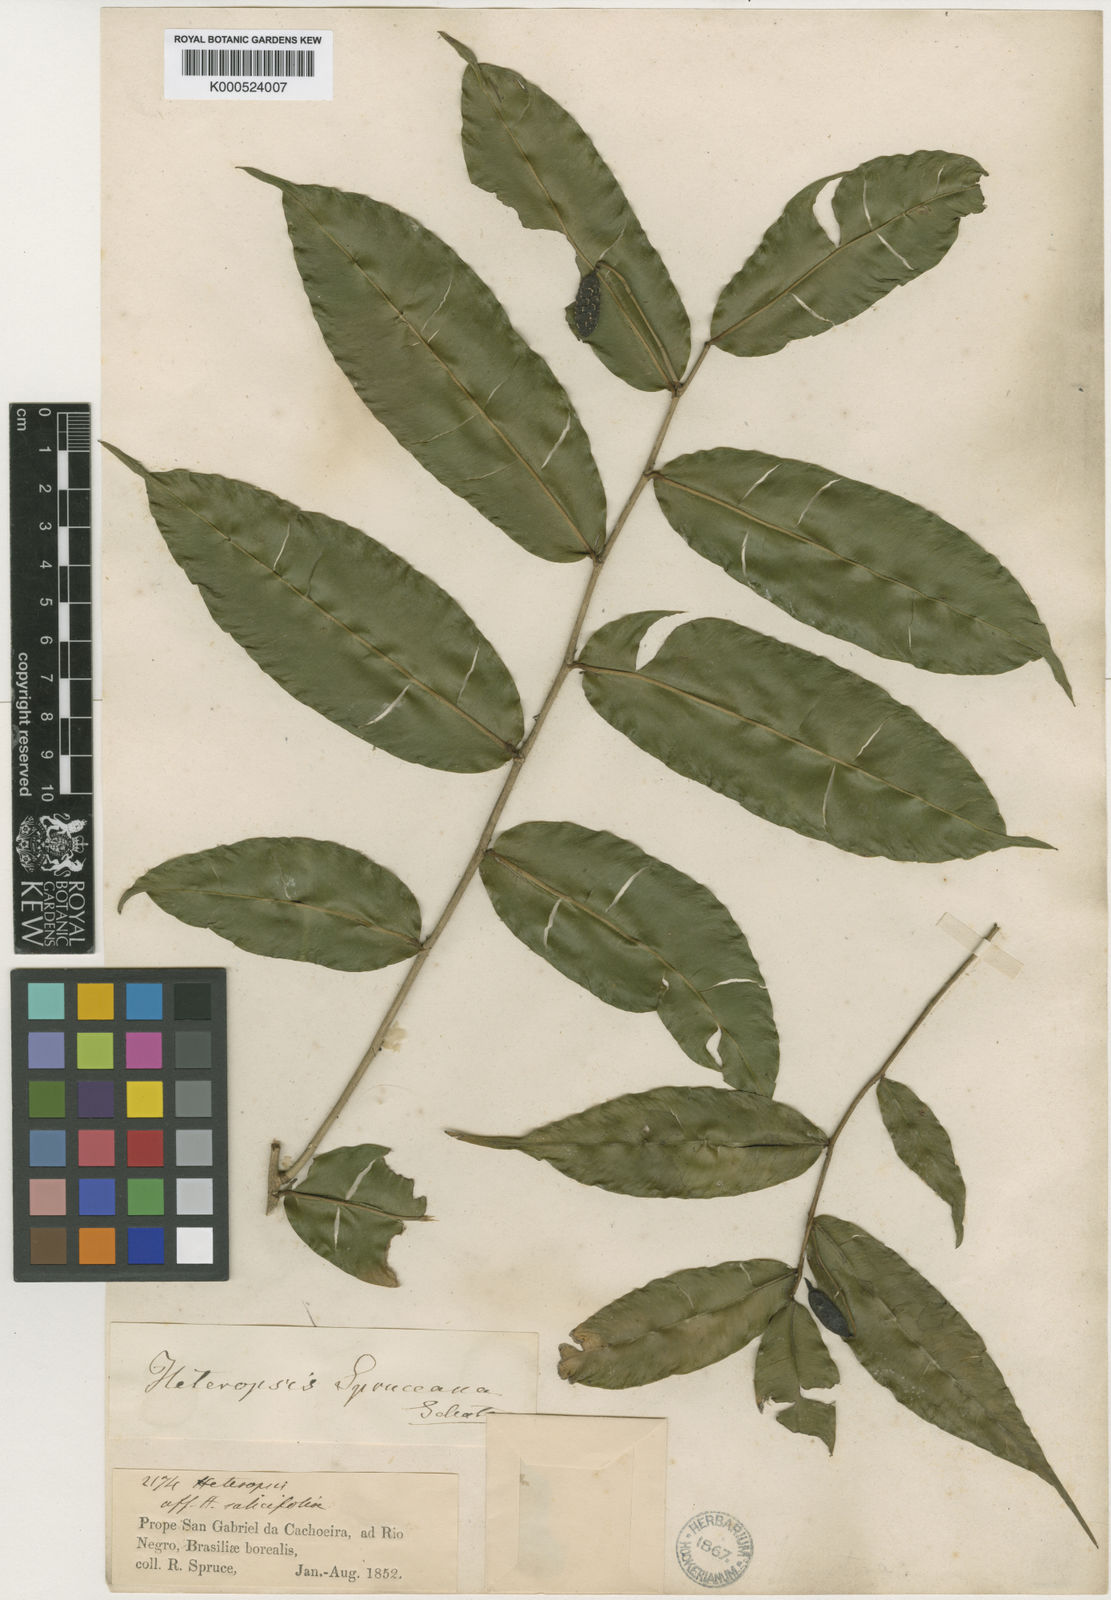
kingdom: Plantae
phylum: Tracheophyta
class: Liliopsida
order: Alismatales
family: Araceae
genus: Heteropsis
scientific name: Heteropsis spruceana
